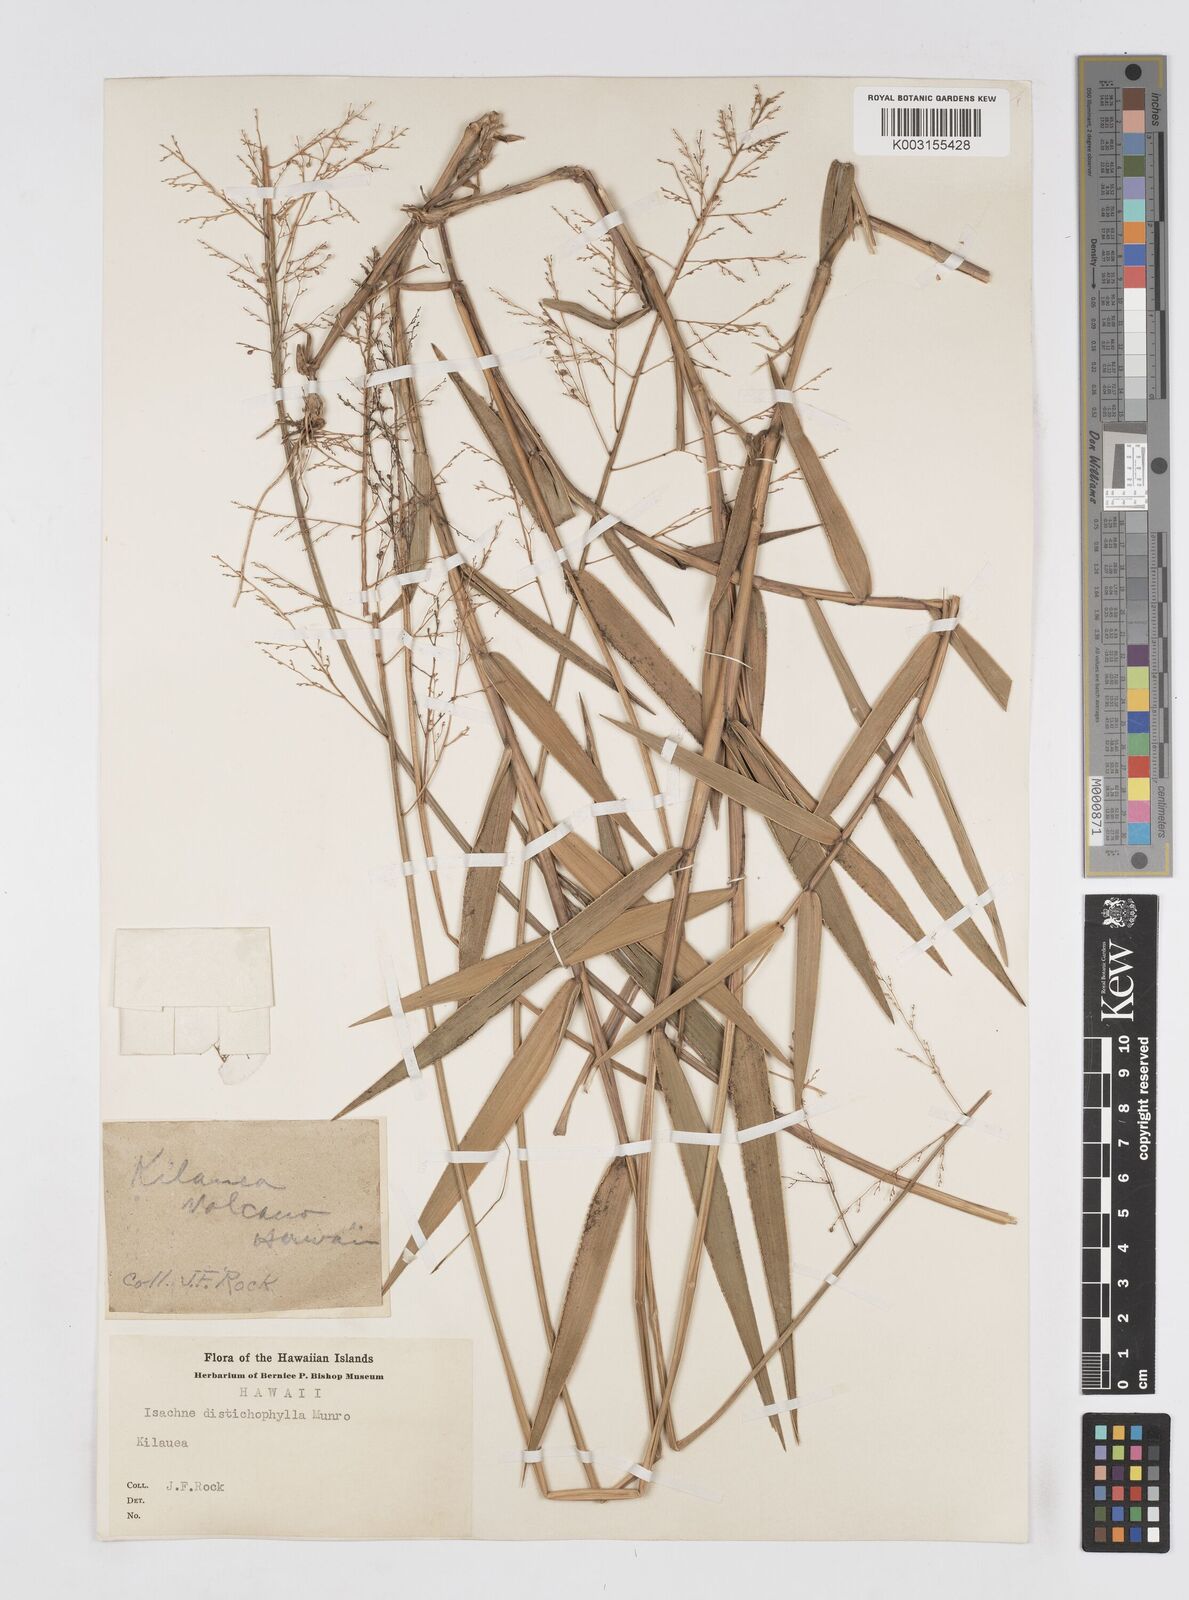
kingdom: Plantae
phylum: Tracheophyta
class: Liliopsida
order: Poales
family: Poaceae
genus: Isachne
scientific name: Isachne distichophylla
